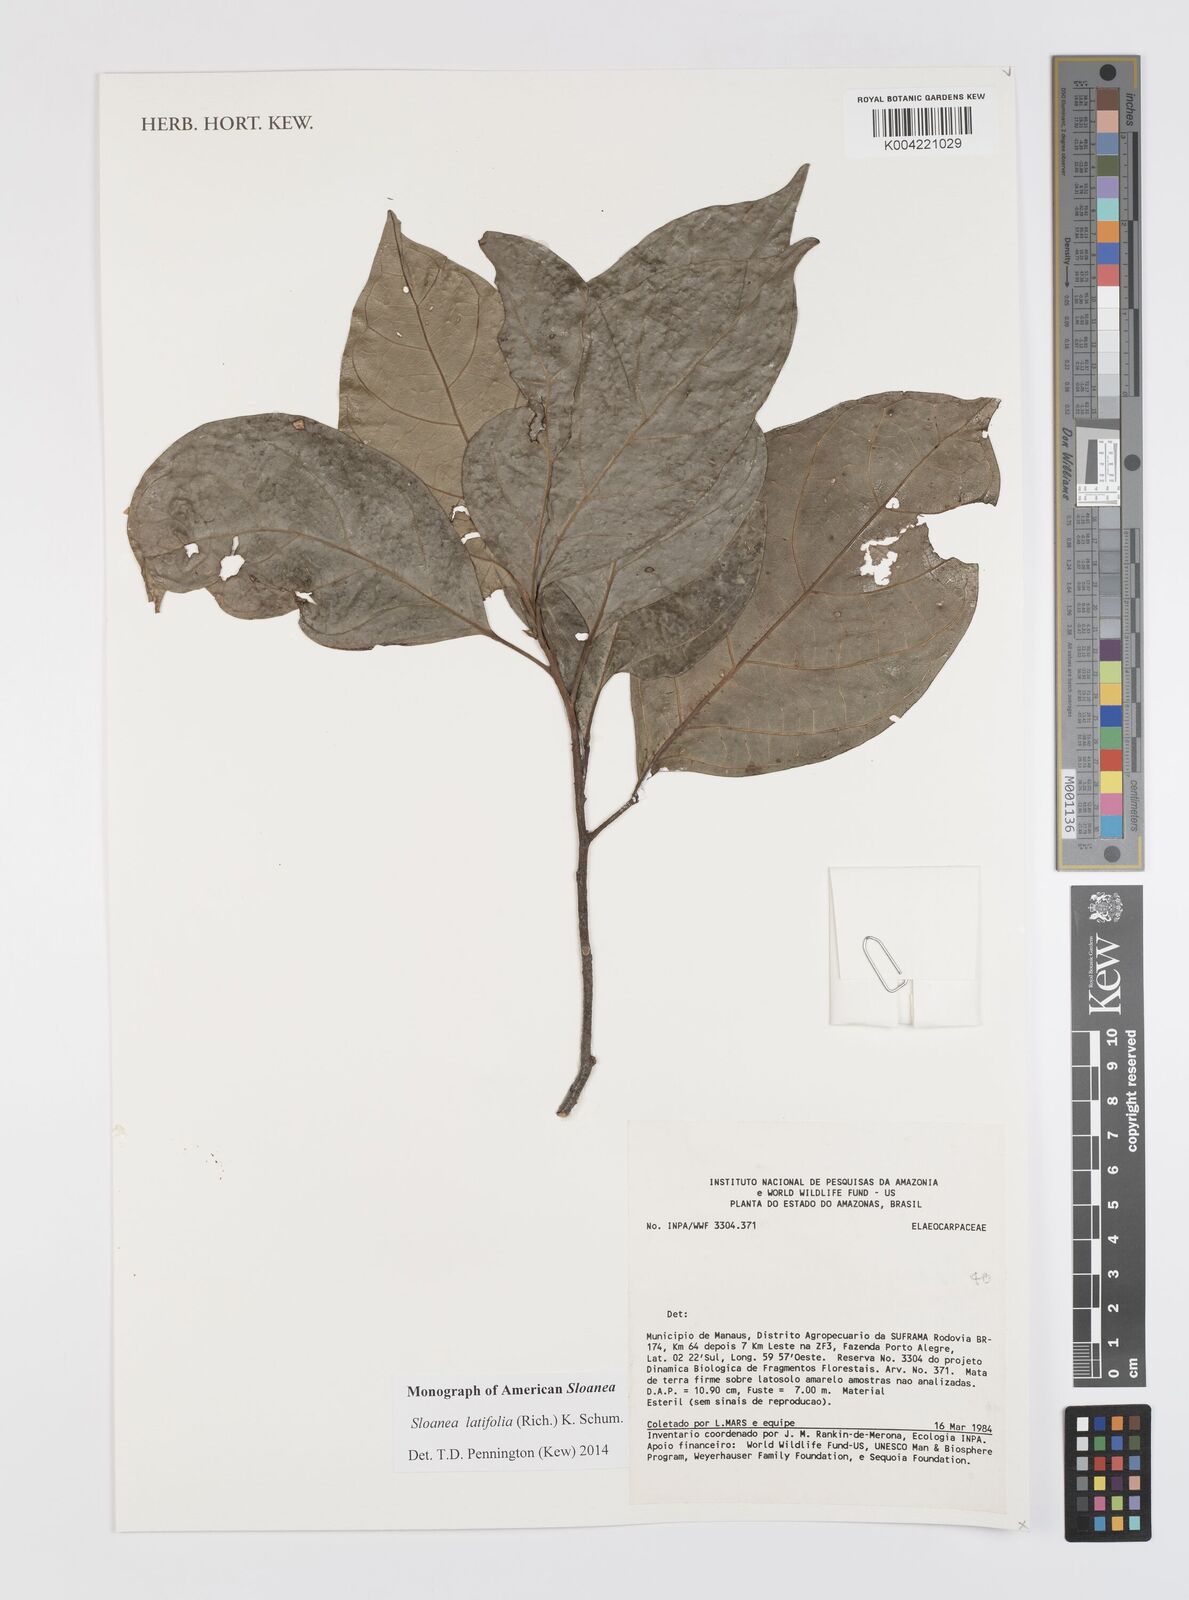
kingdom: Plantae
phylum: Tracheophyta
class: Magnoliopsida
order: Oxalidales
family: Elaeocarpaceae
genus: Sloanea
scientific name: Sloanea latifolia
